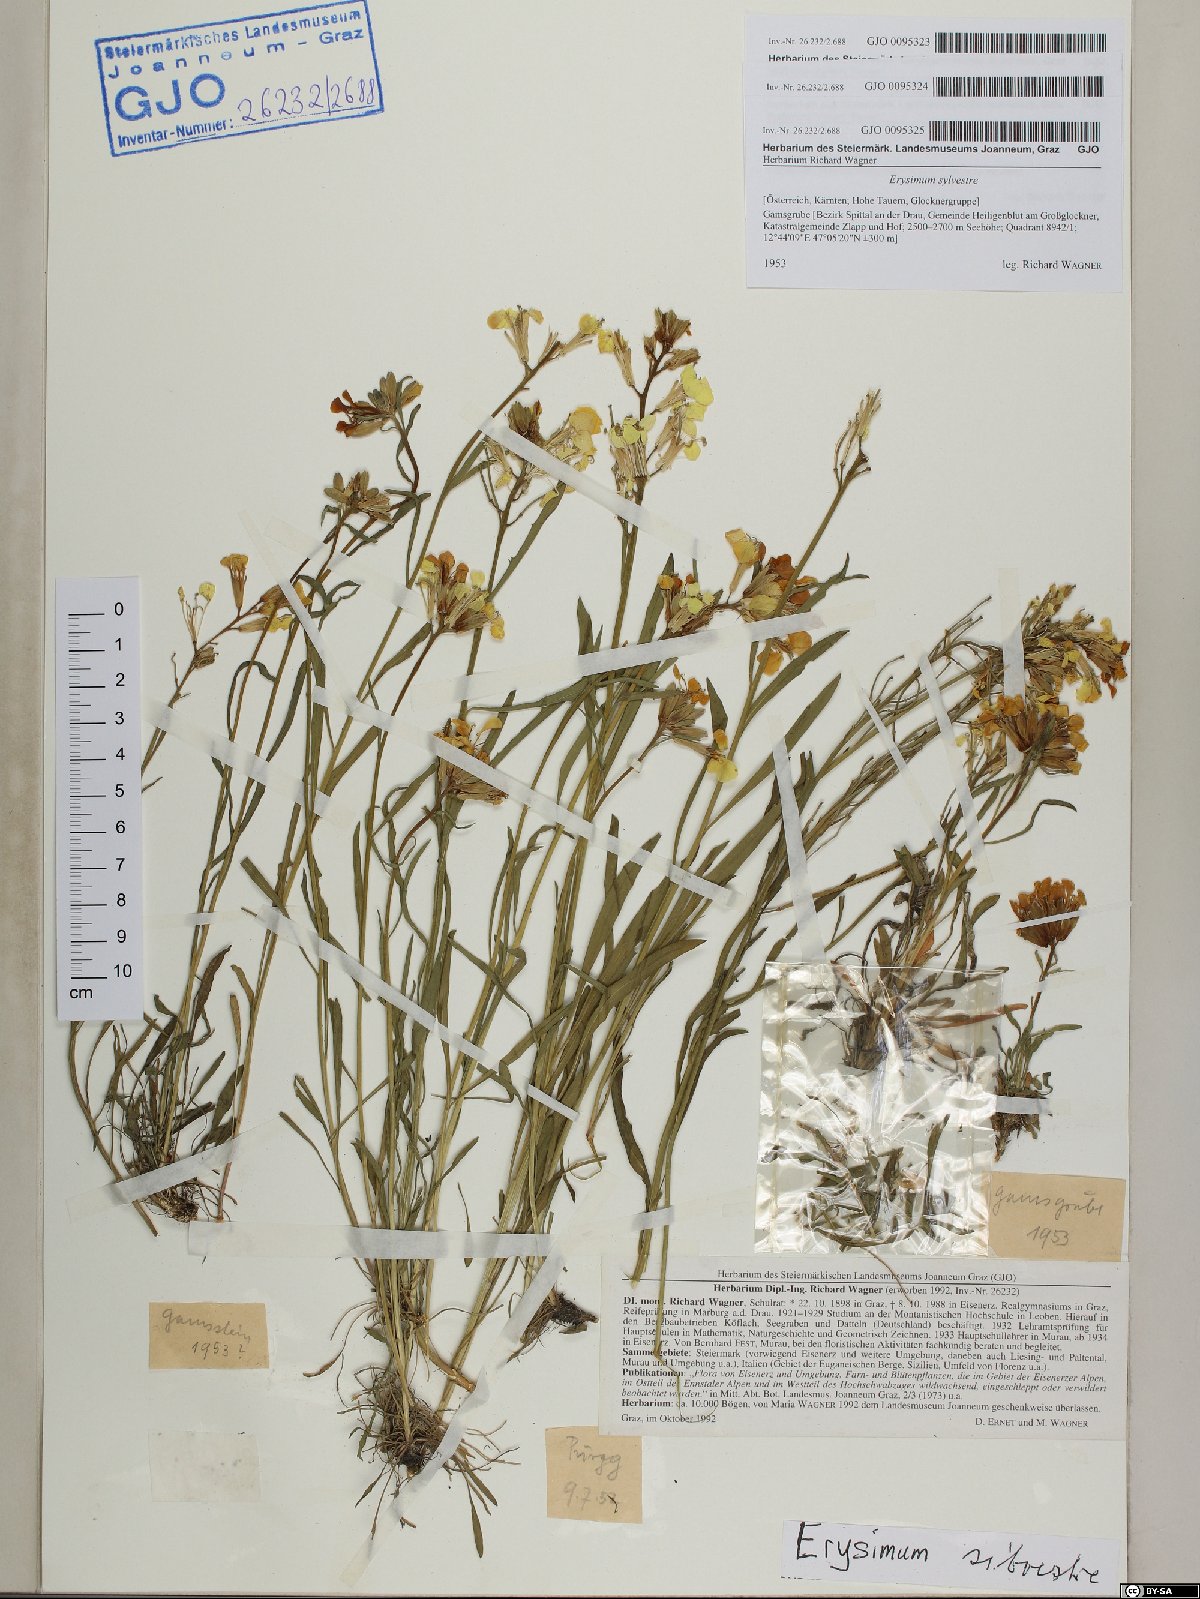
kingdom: Plantae
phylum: Tracheophyta
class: Magnoliopsida
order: Brassicales
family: Brassicaceae
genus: Erysimum
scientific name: Erysimum sylvestre
